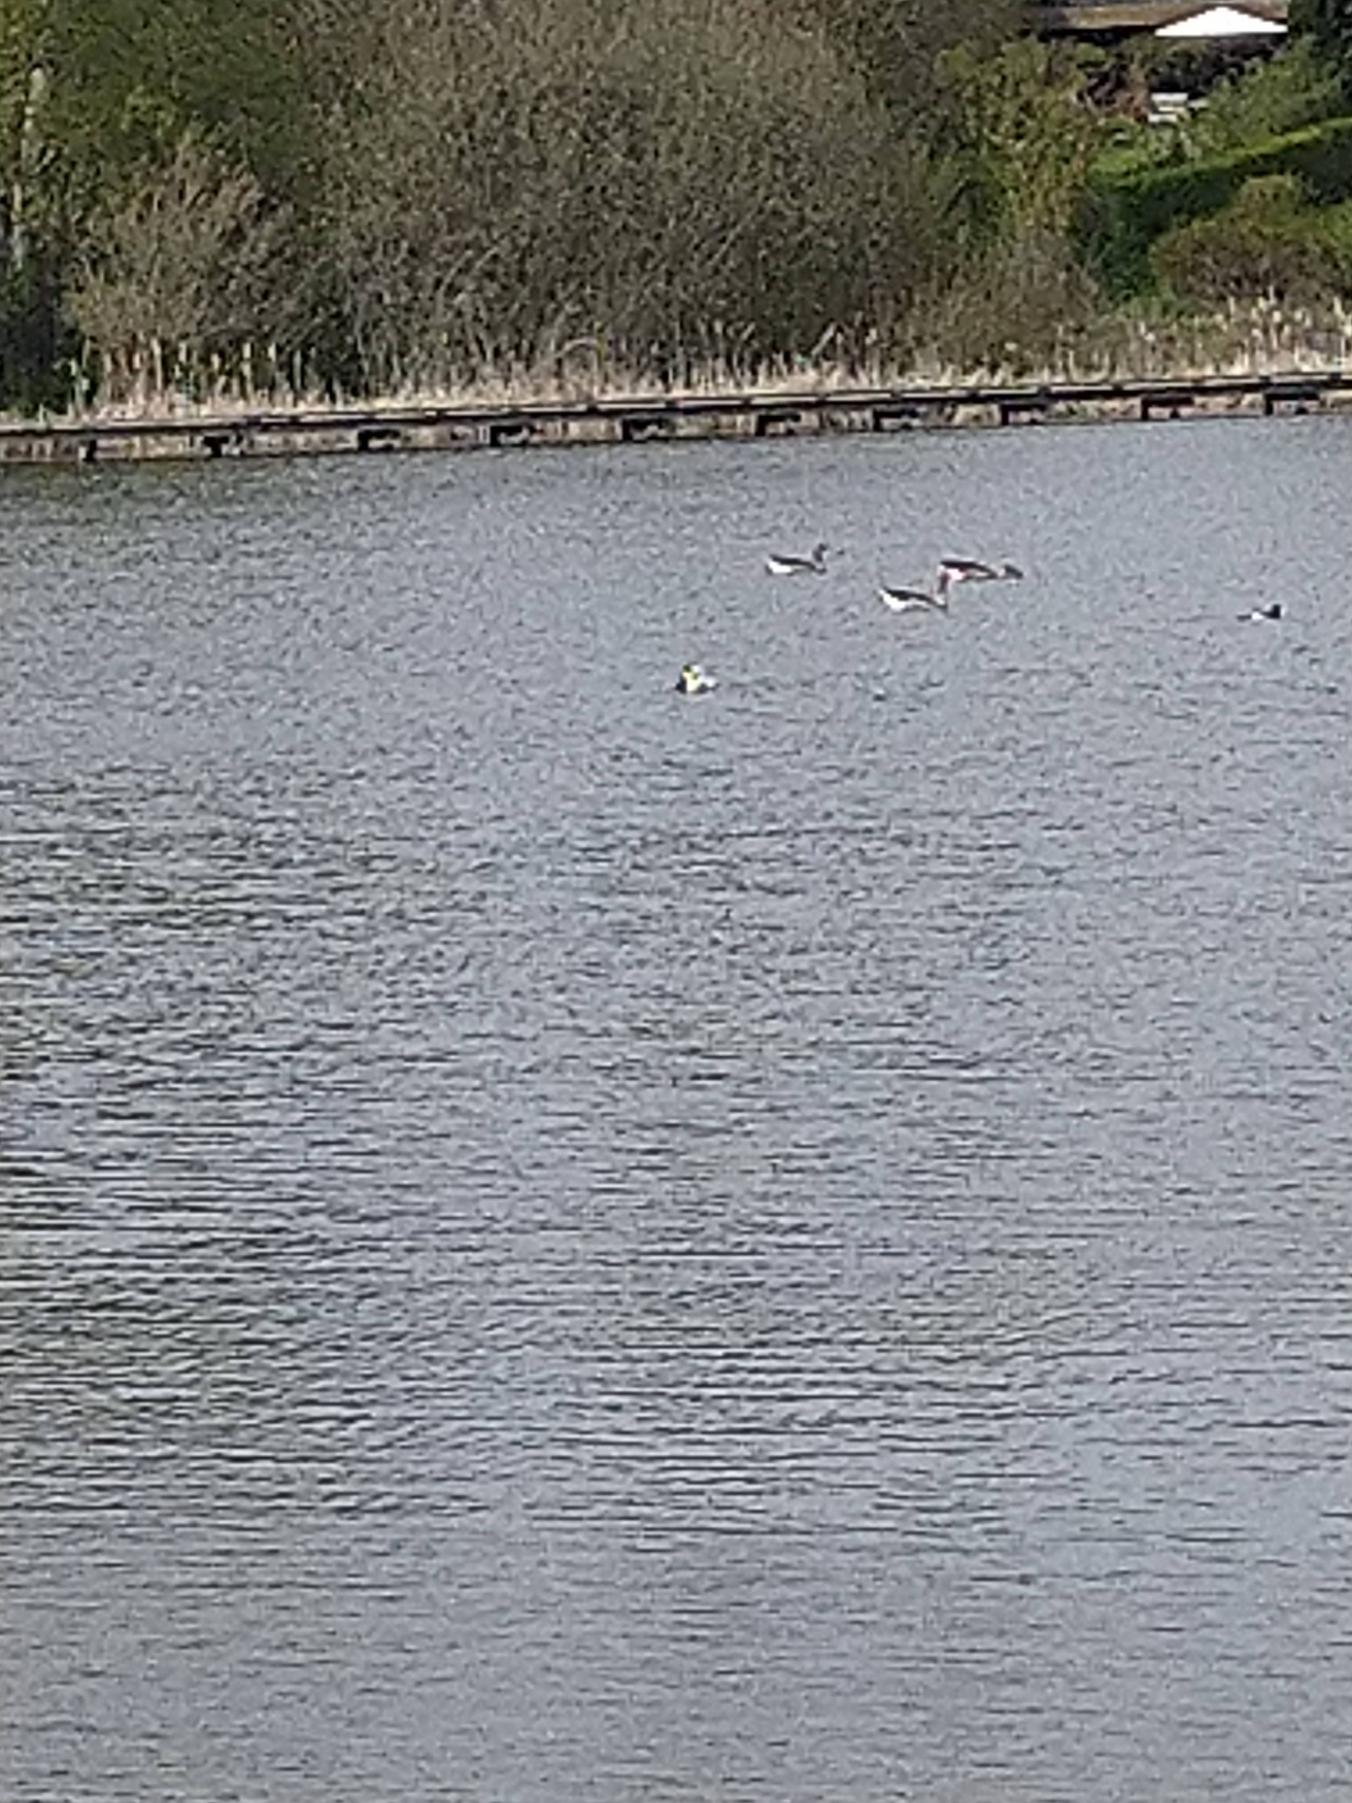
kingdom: Animalia
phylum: Chordata
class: Aves
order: Anseriformes
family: Anatidae
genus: Somateria
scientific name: Somateria mollissima
